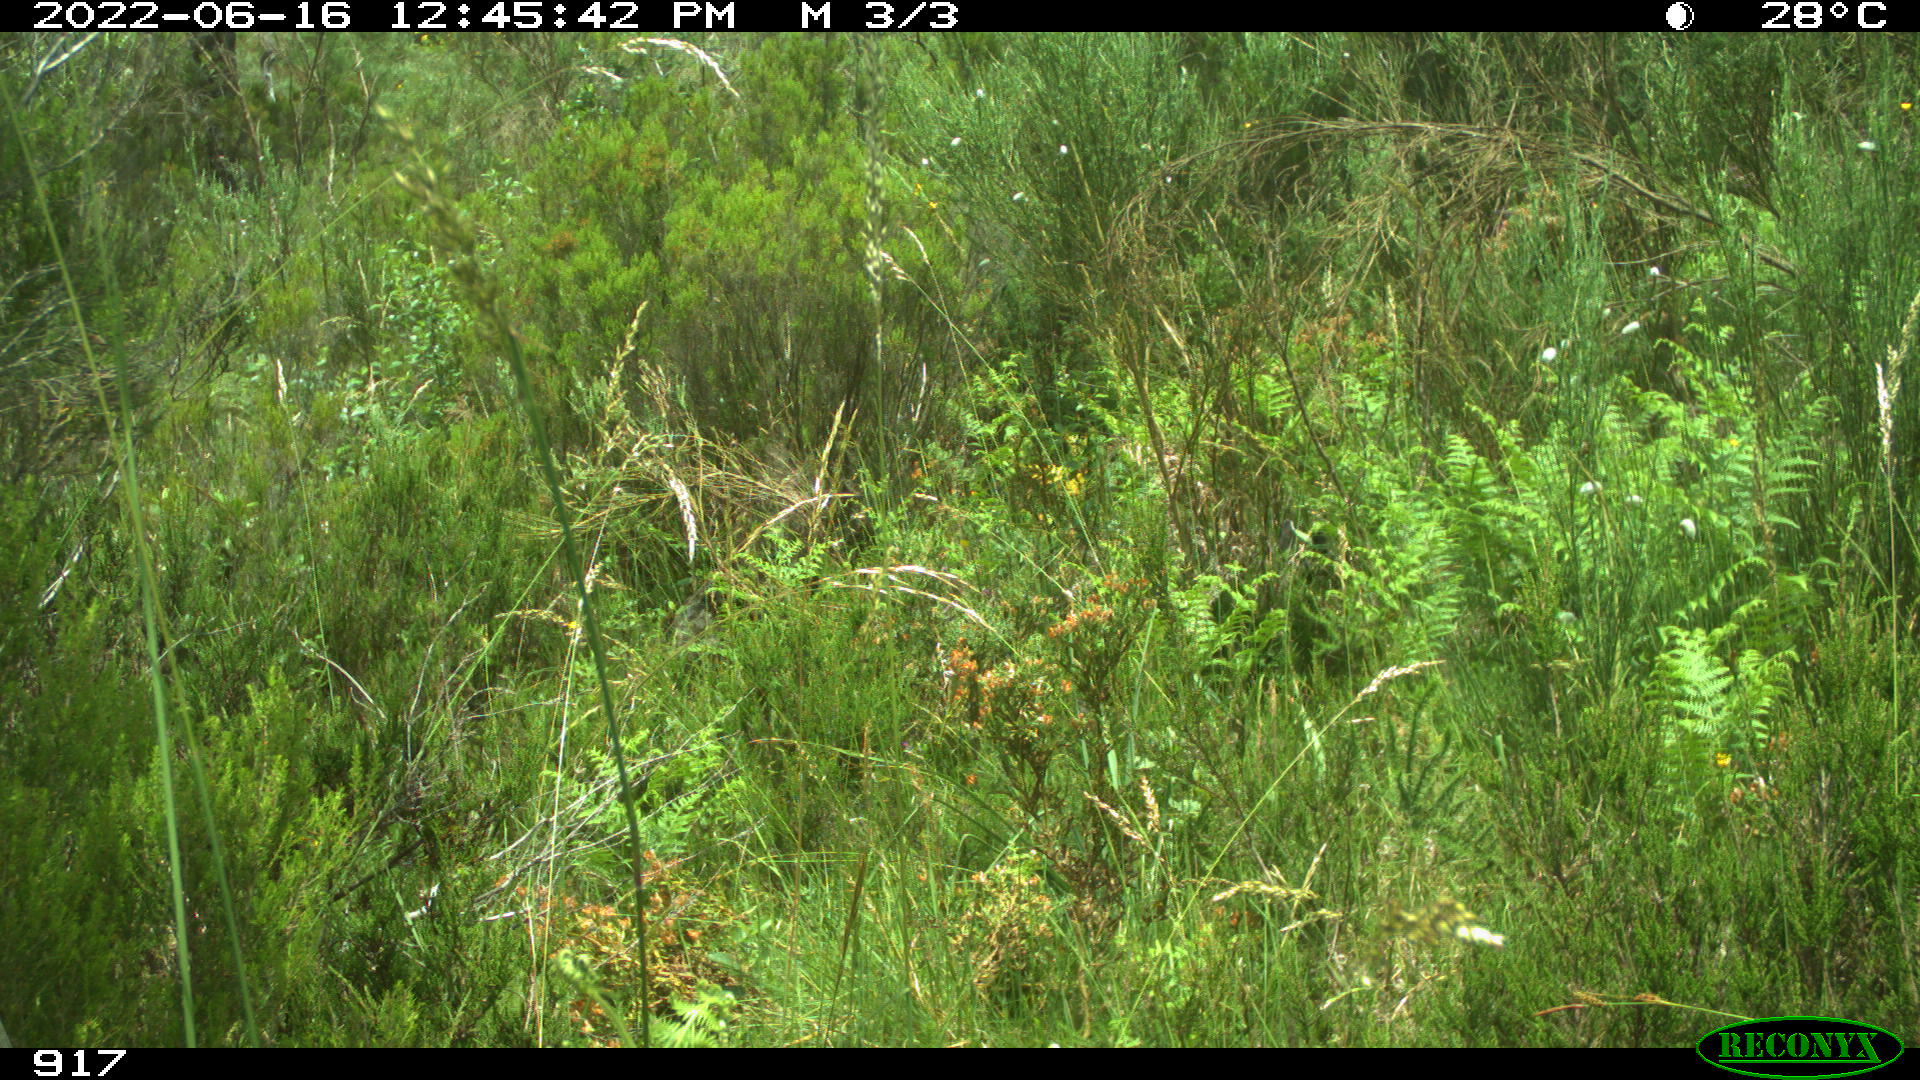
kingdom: Animalia
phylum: Chordata
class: Mammalia
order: Artiodactyla
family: Cervidae
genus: Capreolus
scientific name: Capreolus capreolus
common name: Western roe deer
